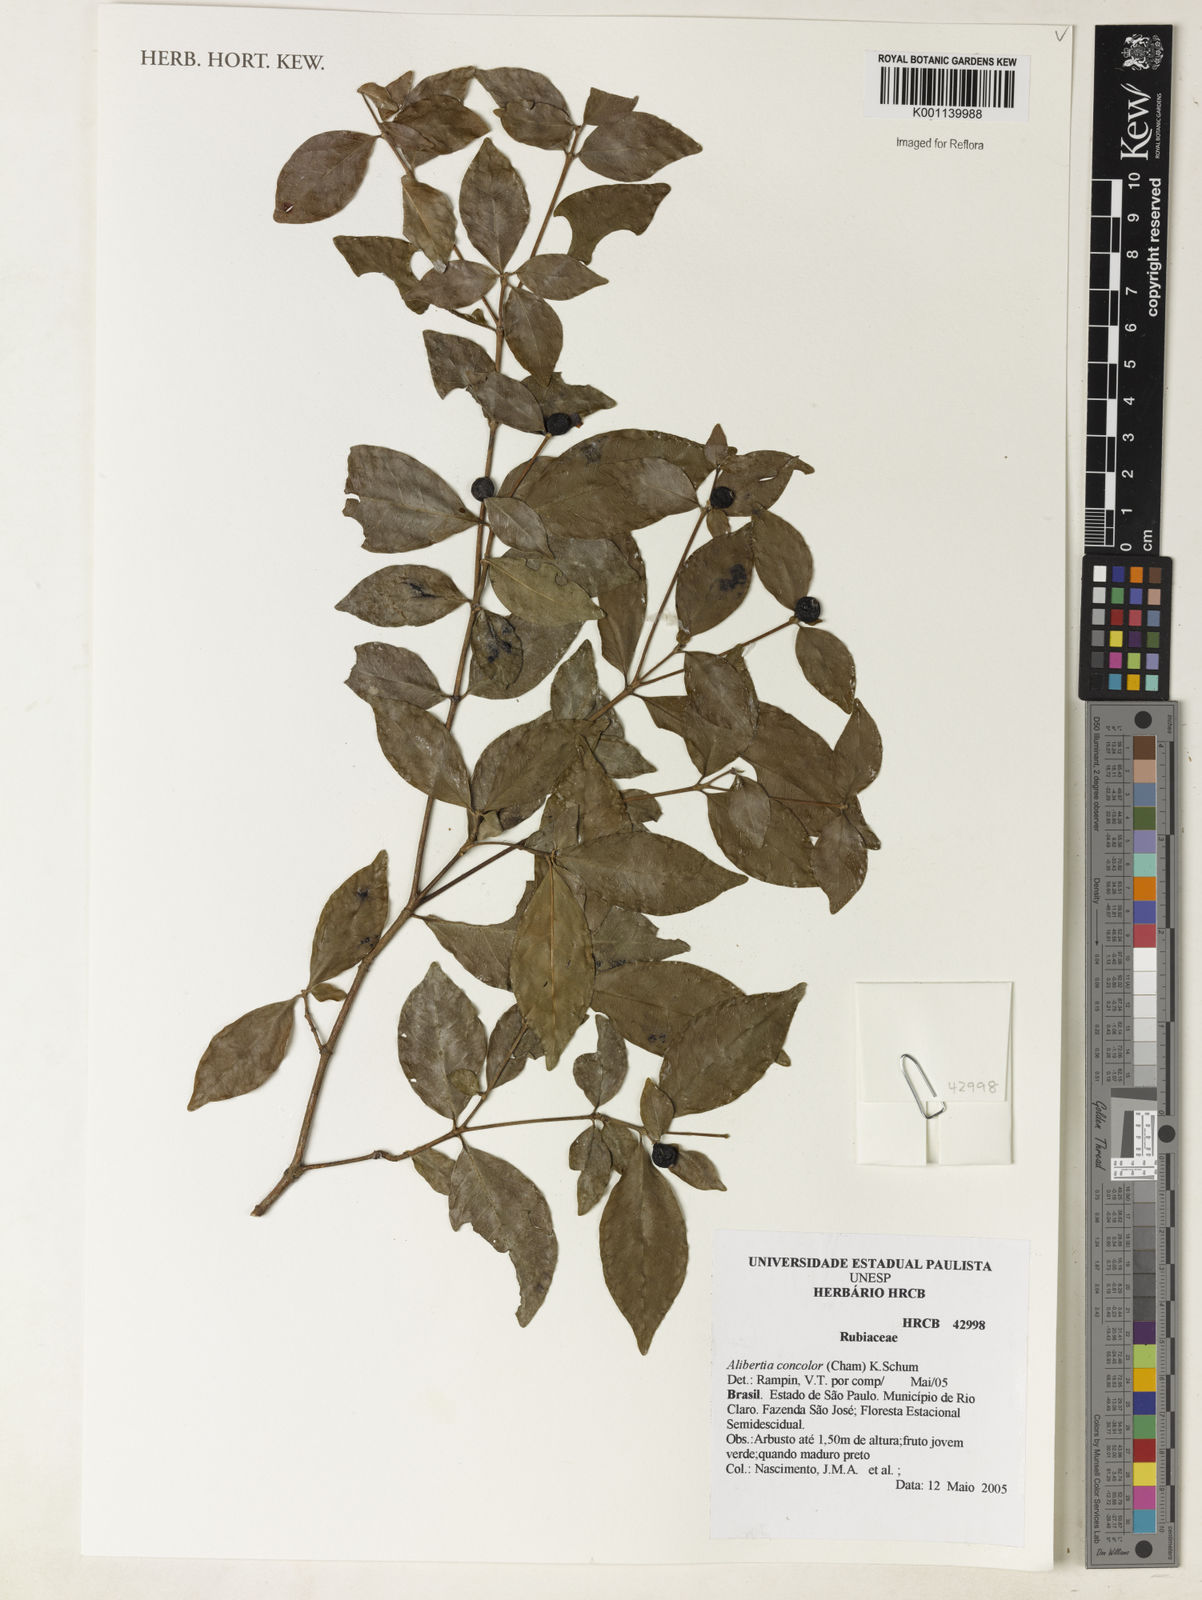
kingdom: Plantae
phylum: Tracheophyta
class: Magnoliopsida
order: Gentianales
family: Rubiaceae
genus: Cordiera
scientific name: Cordiera concolor
